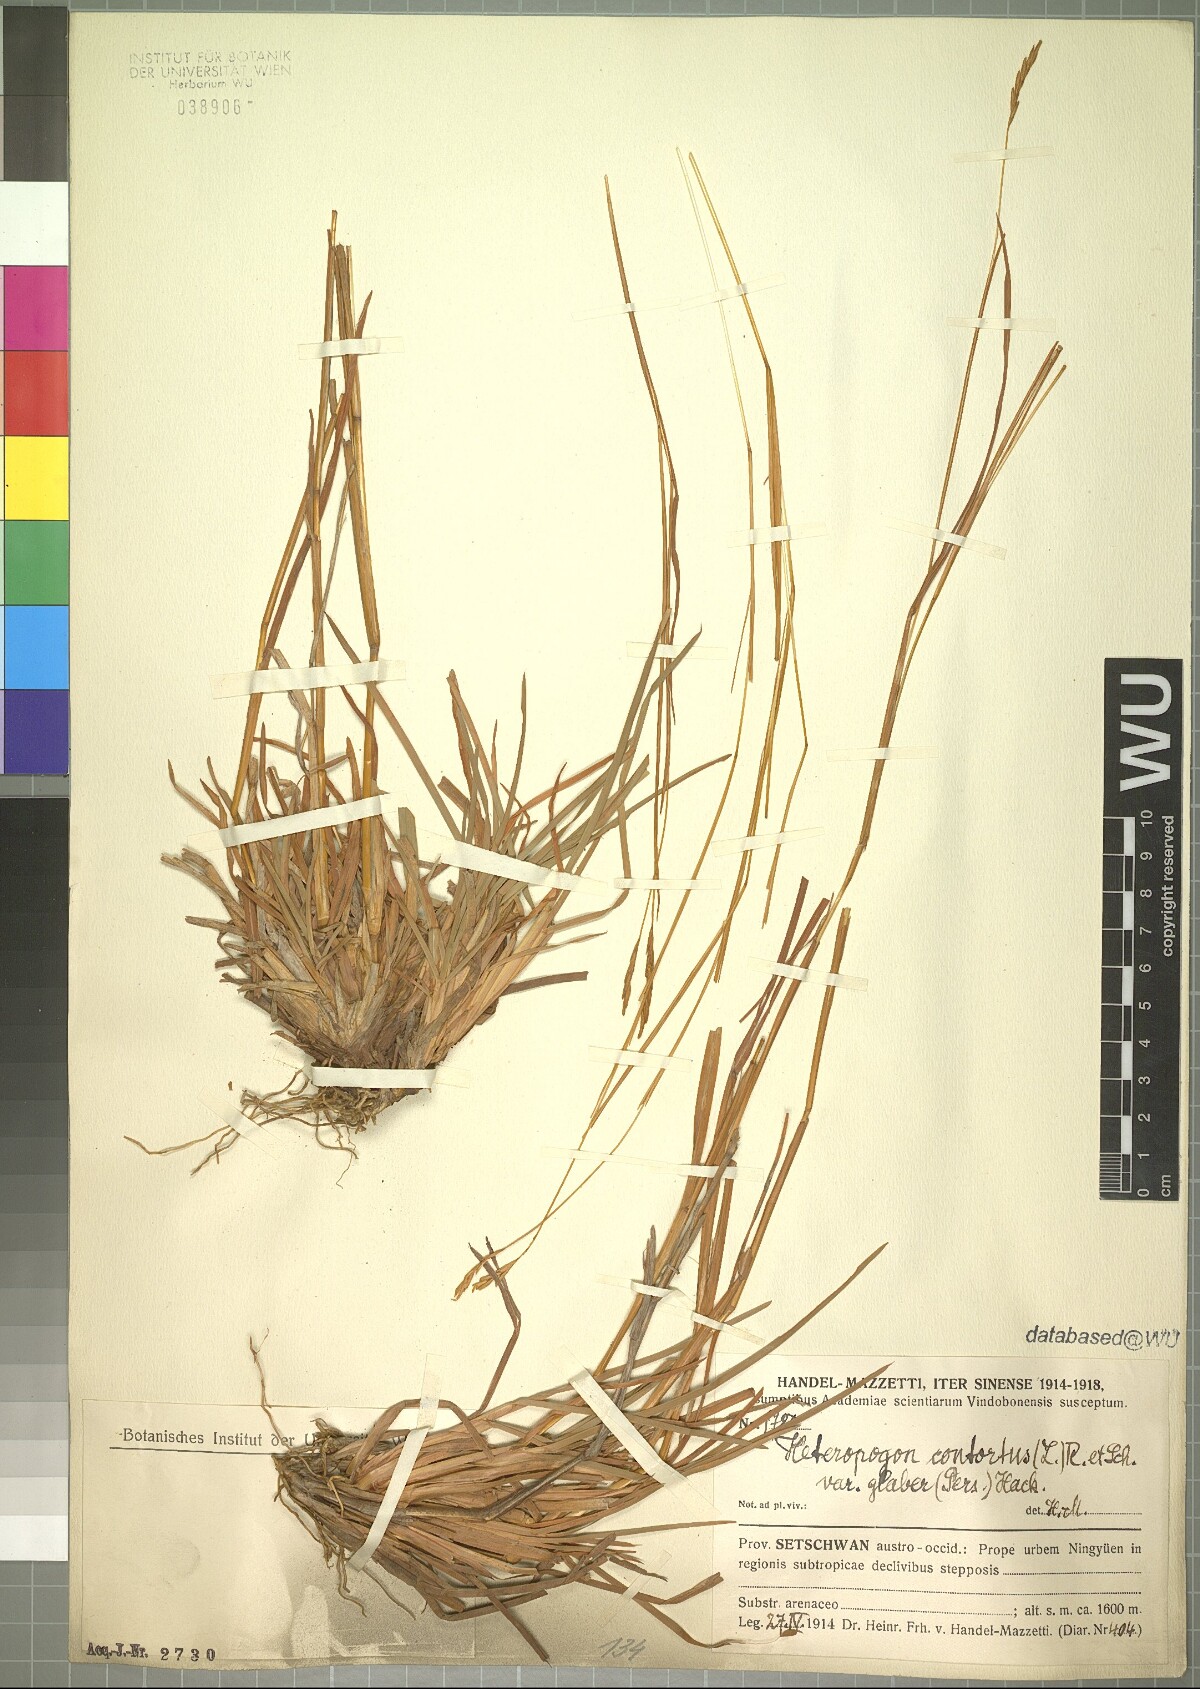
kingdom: Plantae
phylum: Tracheophyta
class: Liliopsida
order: Poales
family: Poaceae
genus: Heteropogon
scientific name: Heteropogon contortus
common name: Tanglehead
